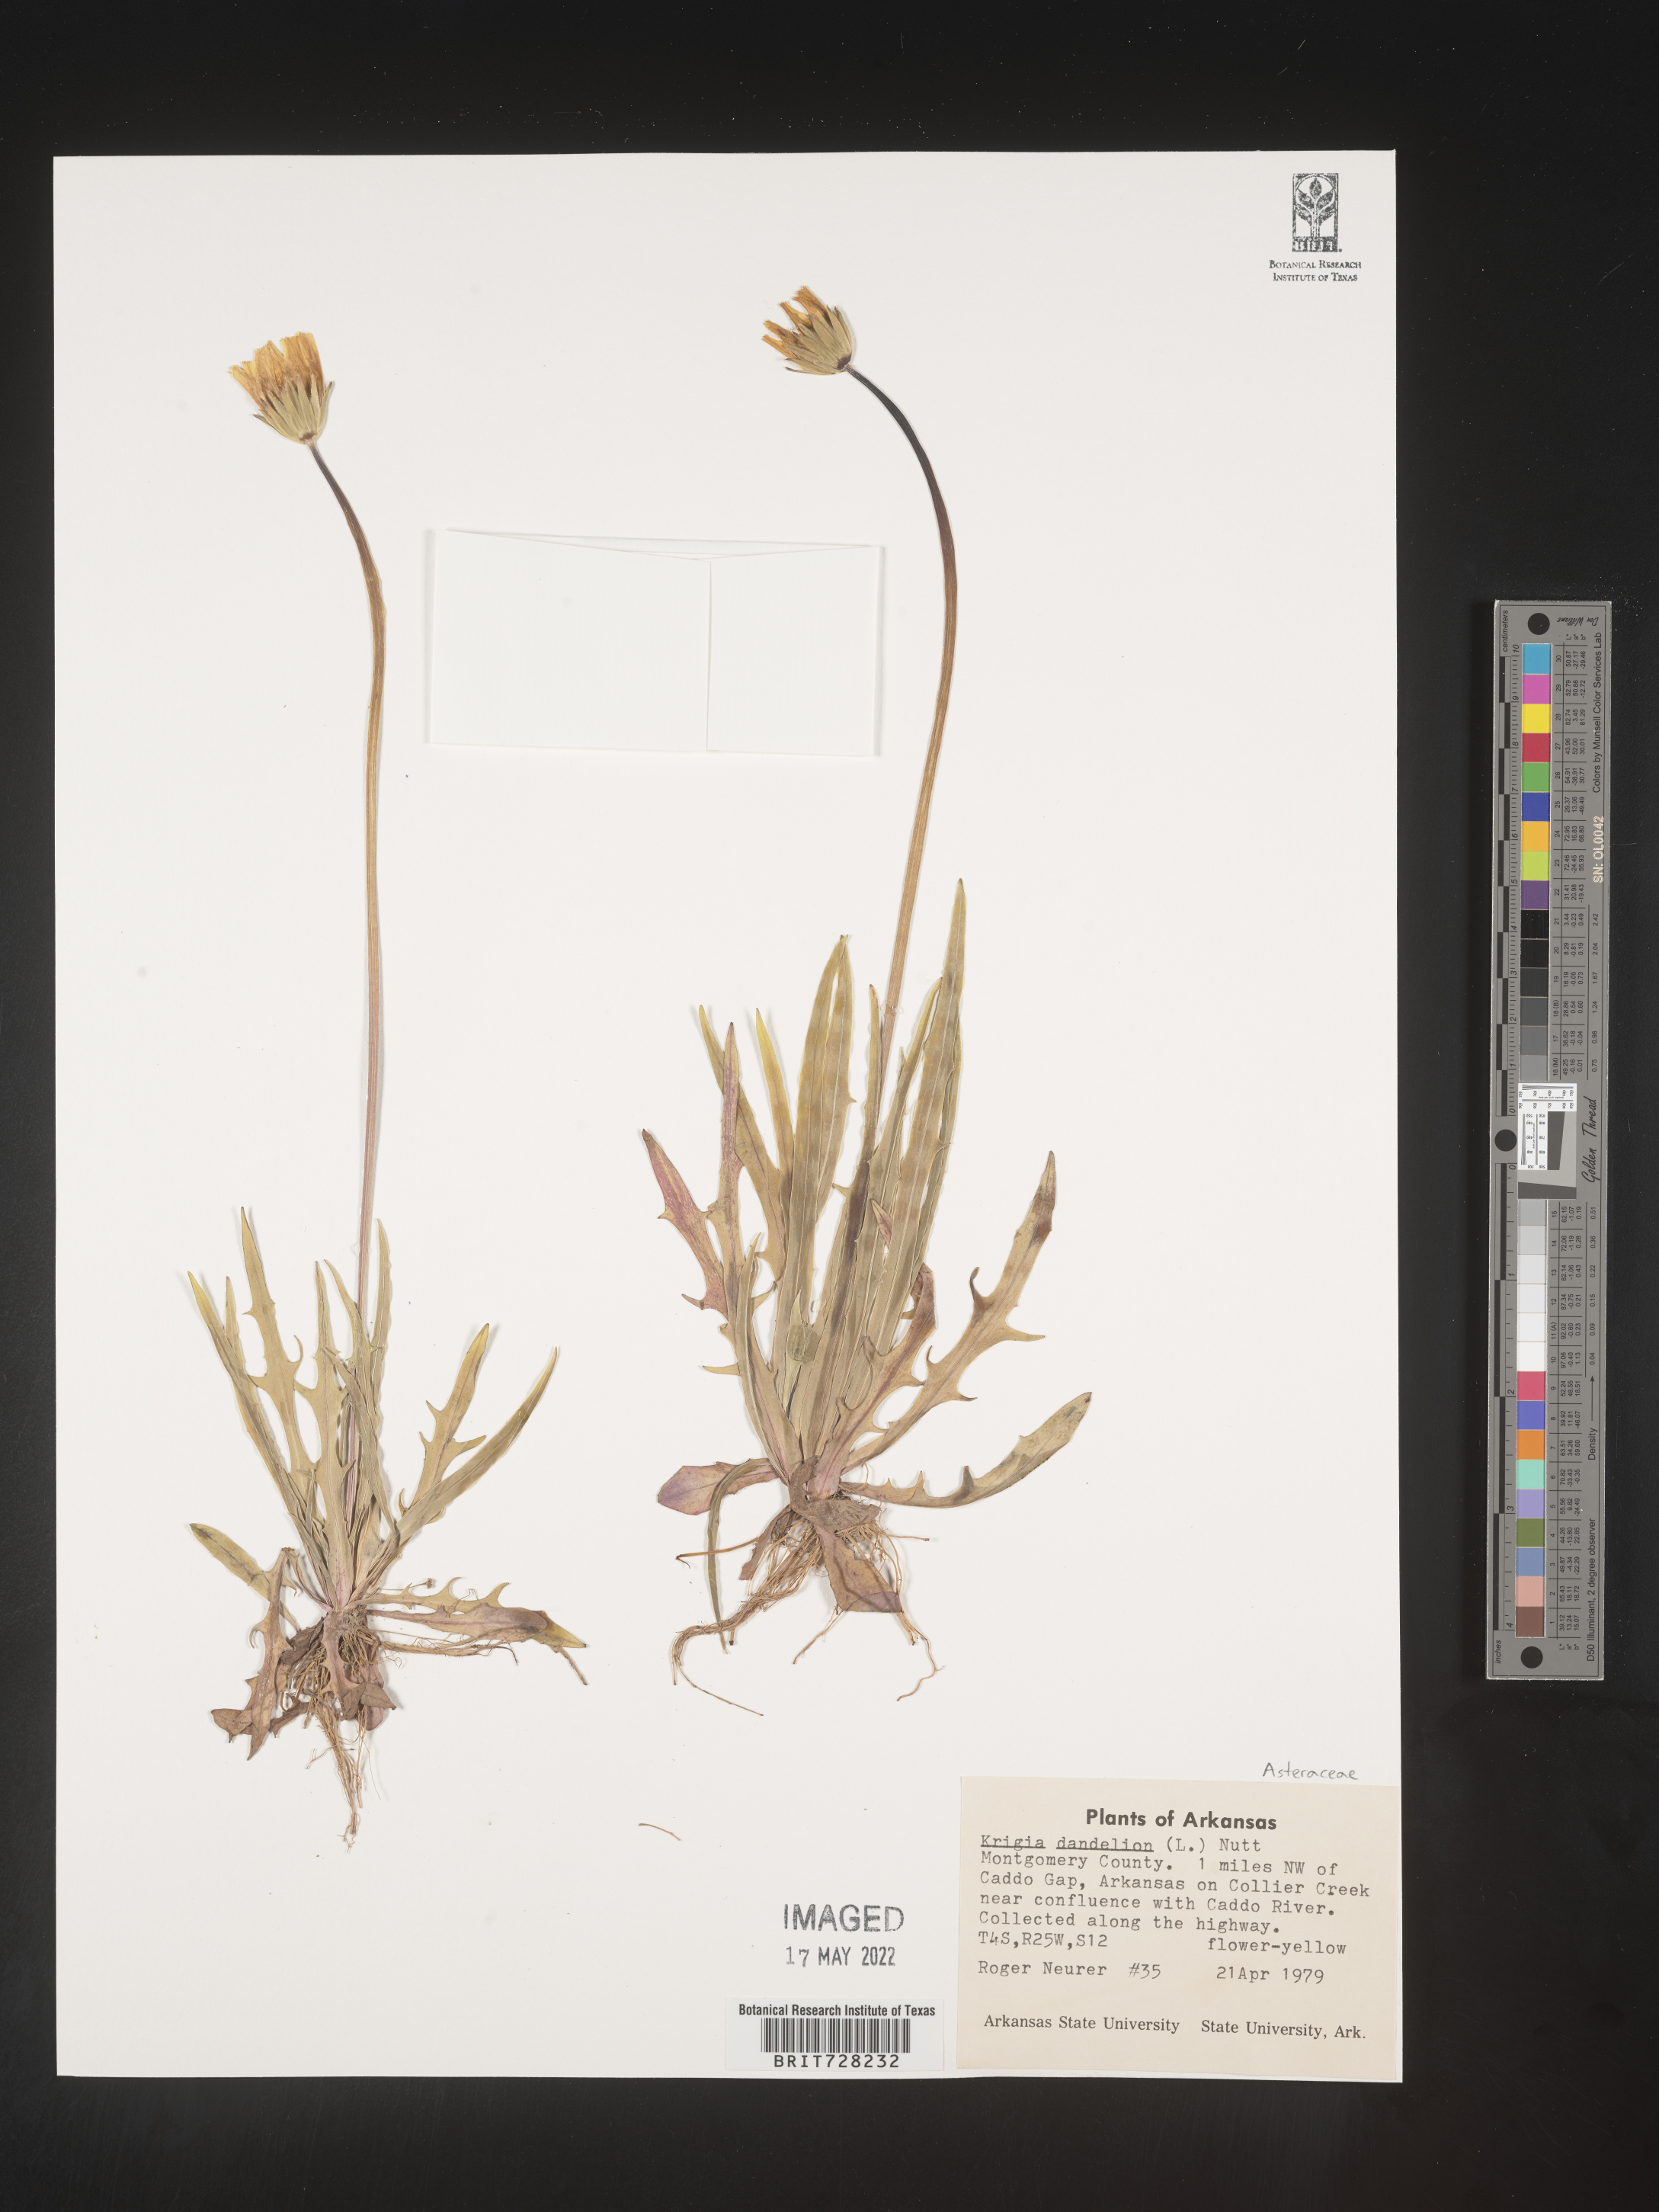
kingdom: Plantae
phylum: Tracheophyta
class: Magnoliopsida
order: Asterales
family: Asteraceae
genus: Krigia
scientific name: Krigia dandelion
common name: Colonial dwarf-dandelion
